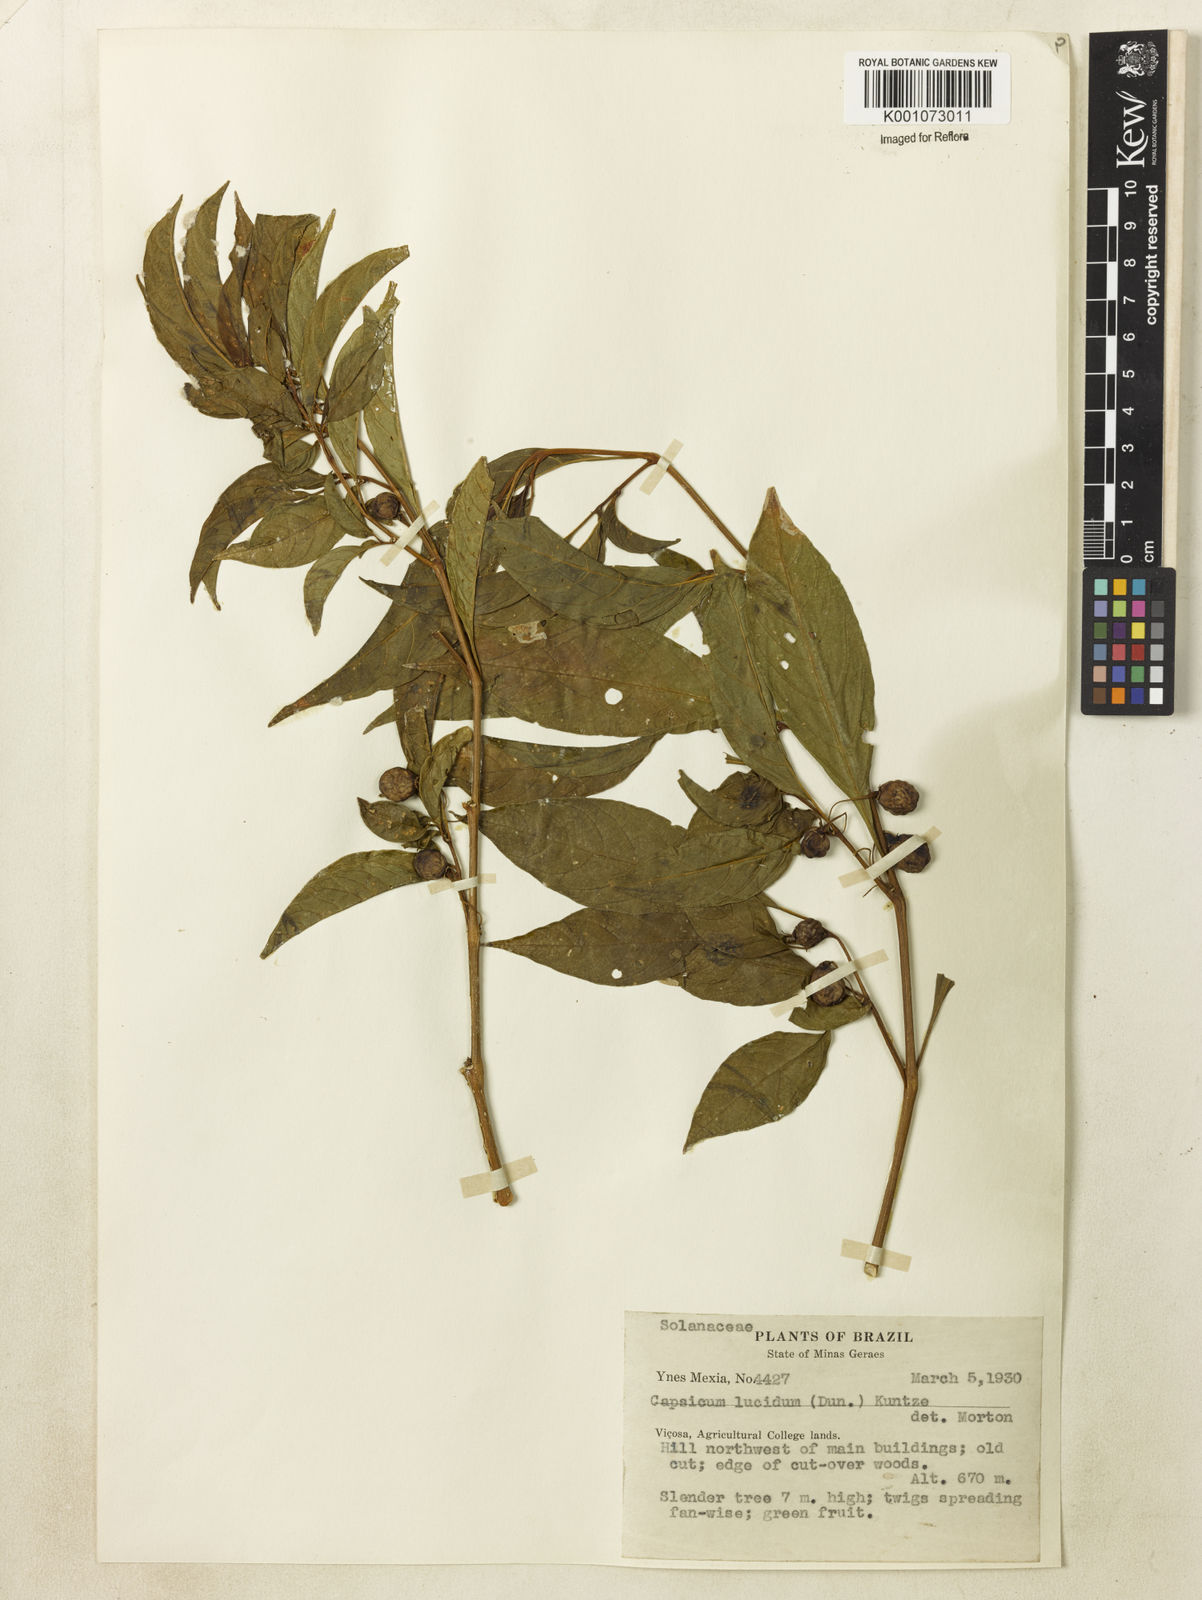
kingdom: Plantae
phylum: Tracheophyta
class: Magnoliopsida
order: Solanales
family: Solanaceae
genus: Athenaea
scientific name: Athenaea fasciculata
